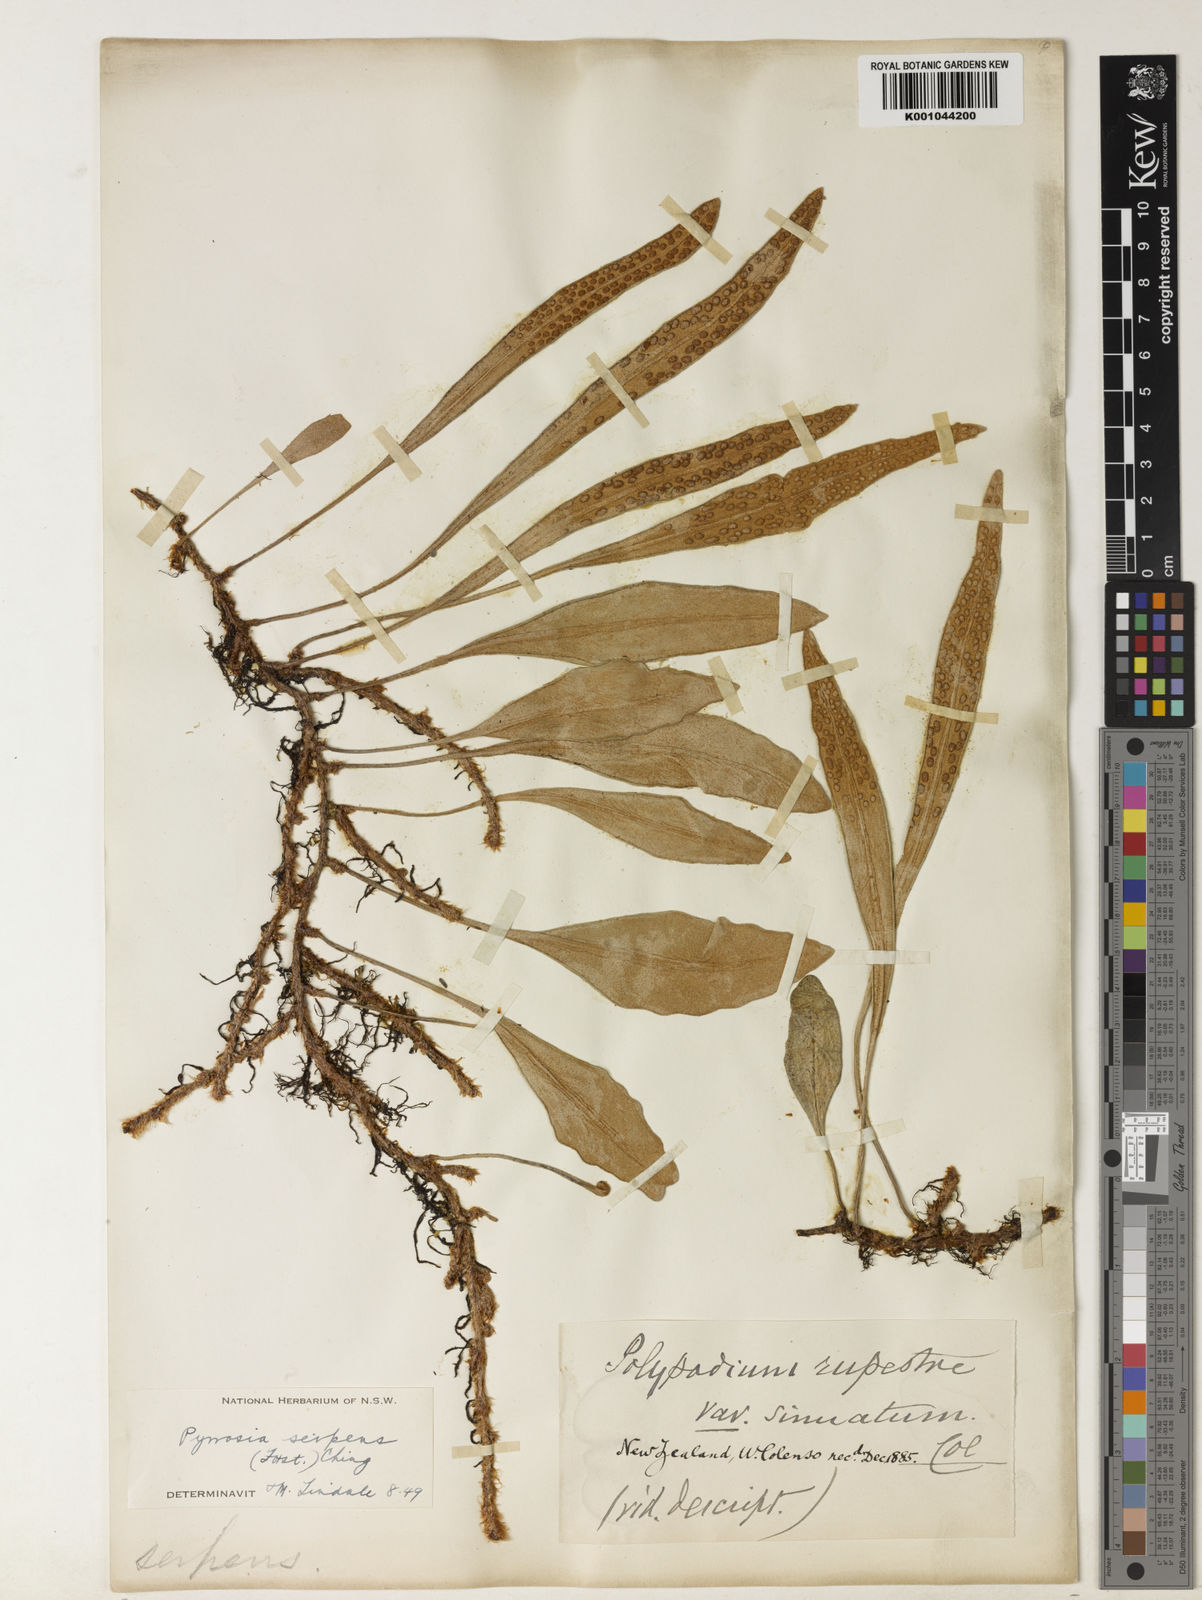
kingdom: Plantae
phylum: Tracheophyta
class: Polypodiopsida
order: Polypodiales
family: Polypodiaceae
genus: Pyrrosia
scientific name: Pyrrosia serpens
